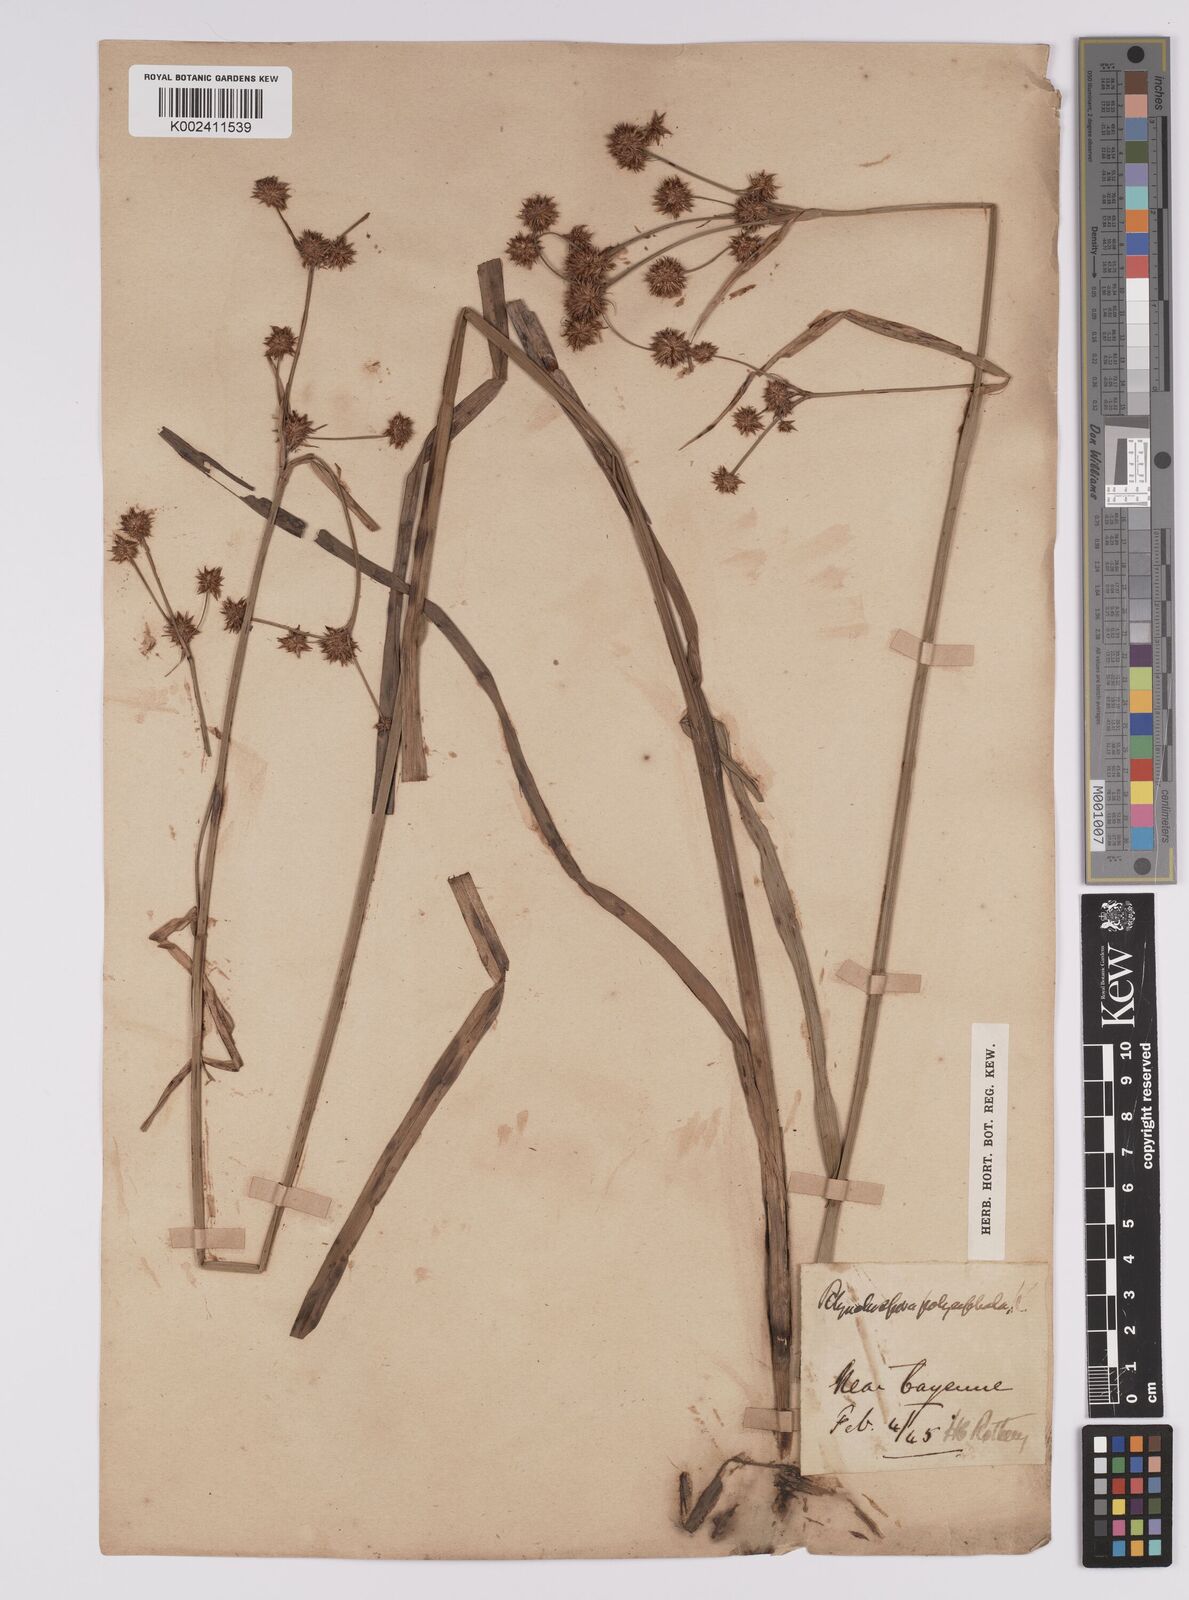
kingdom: Plantae
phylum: Tracheophyta
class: Liliopsida
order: Poales
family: Cyperaceae
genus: Rhynchospora
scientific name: Rhynchospora holoschoenoides
